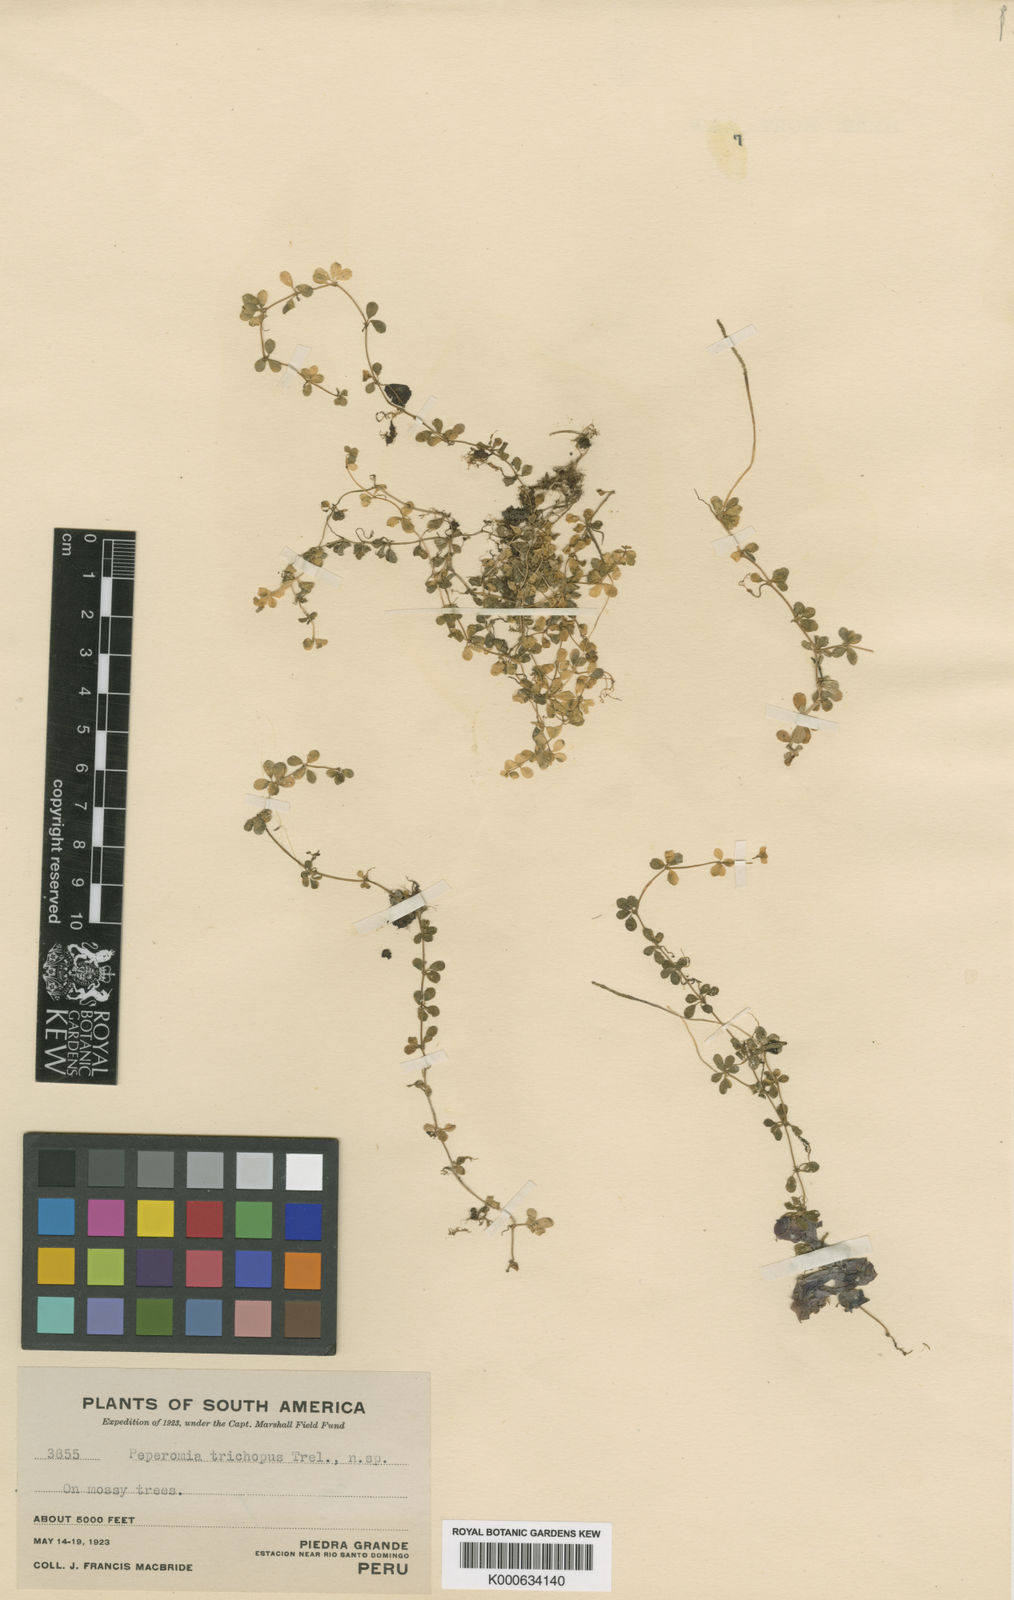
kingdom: Plantae
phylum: Tracheophyta
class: Magnoliopsida
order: Piperales
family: Piperaceae
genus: Peperomia
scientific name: Peperomia trichopus
